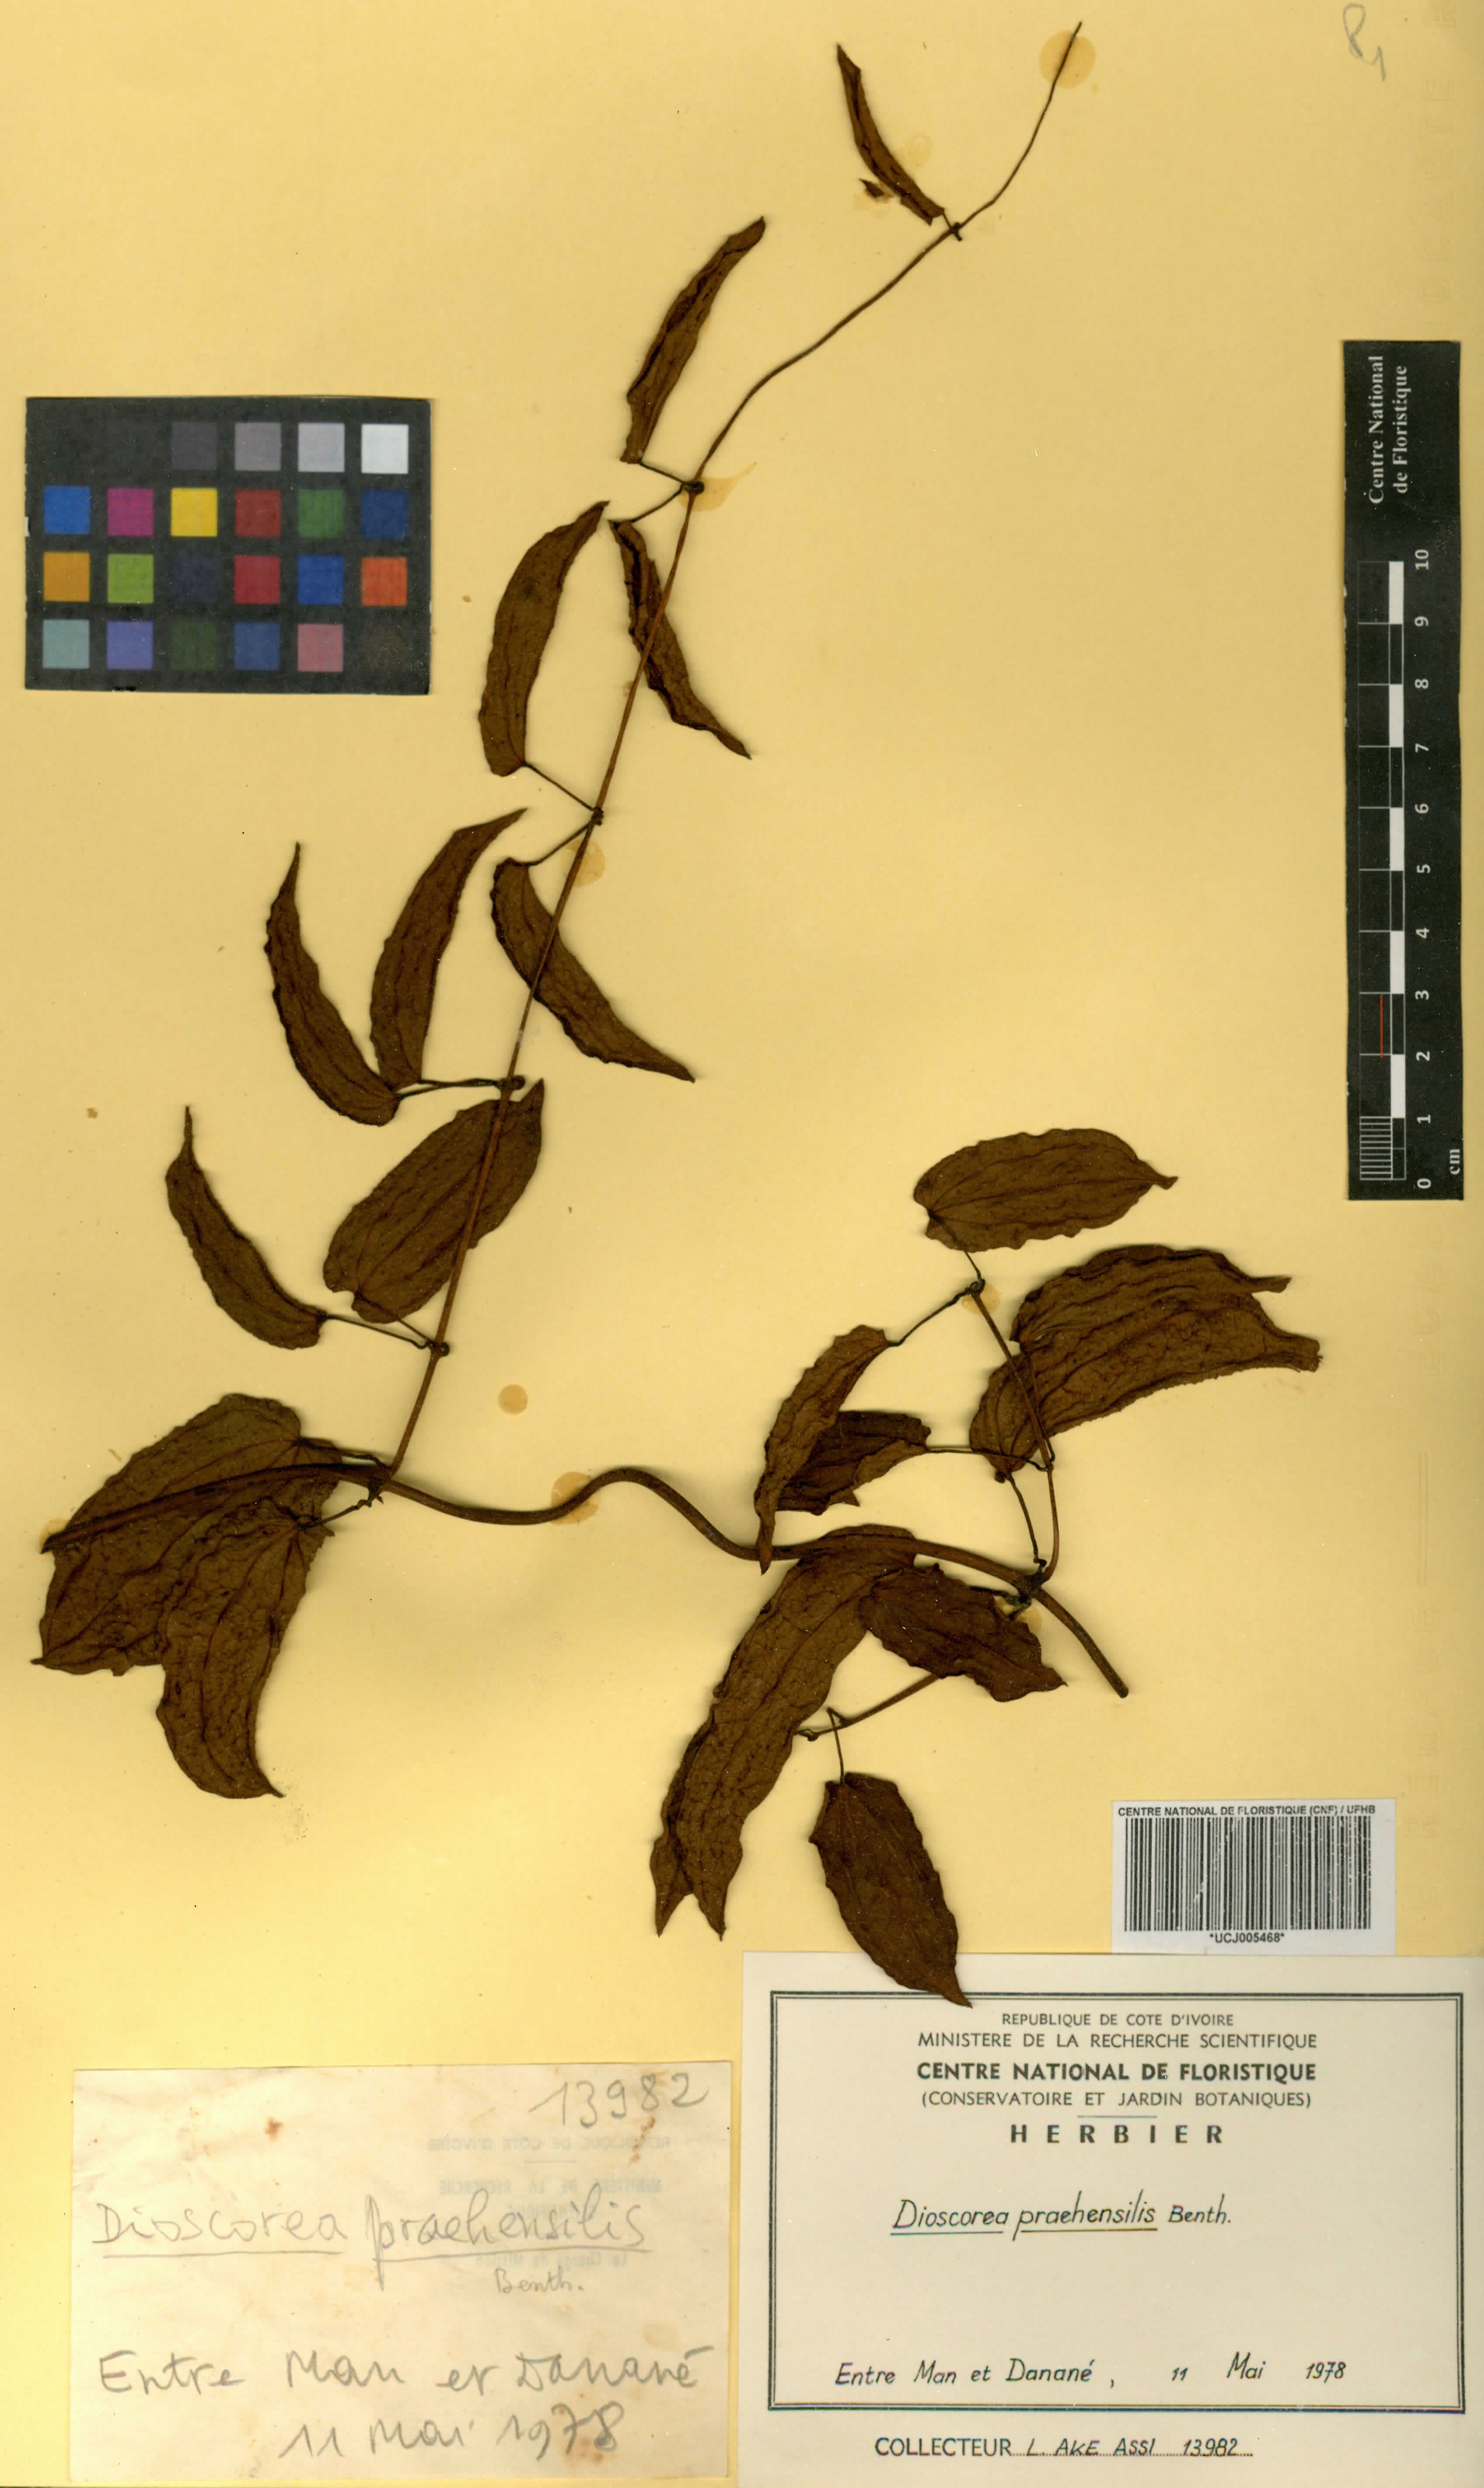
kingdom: Plantae
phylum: Tracheophyta
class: Liliopsida
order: Dioscoreales
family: Dioscoreaceae
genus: Dioscorea
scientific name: Dioscorea praehensilis
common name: Bush yam
